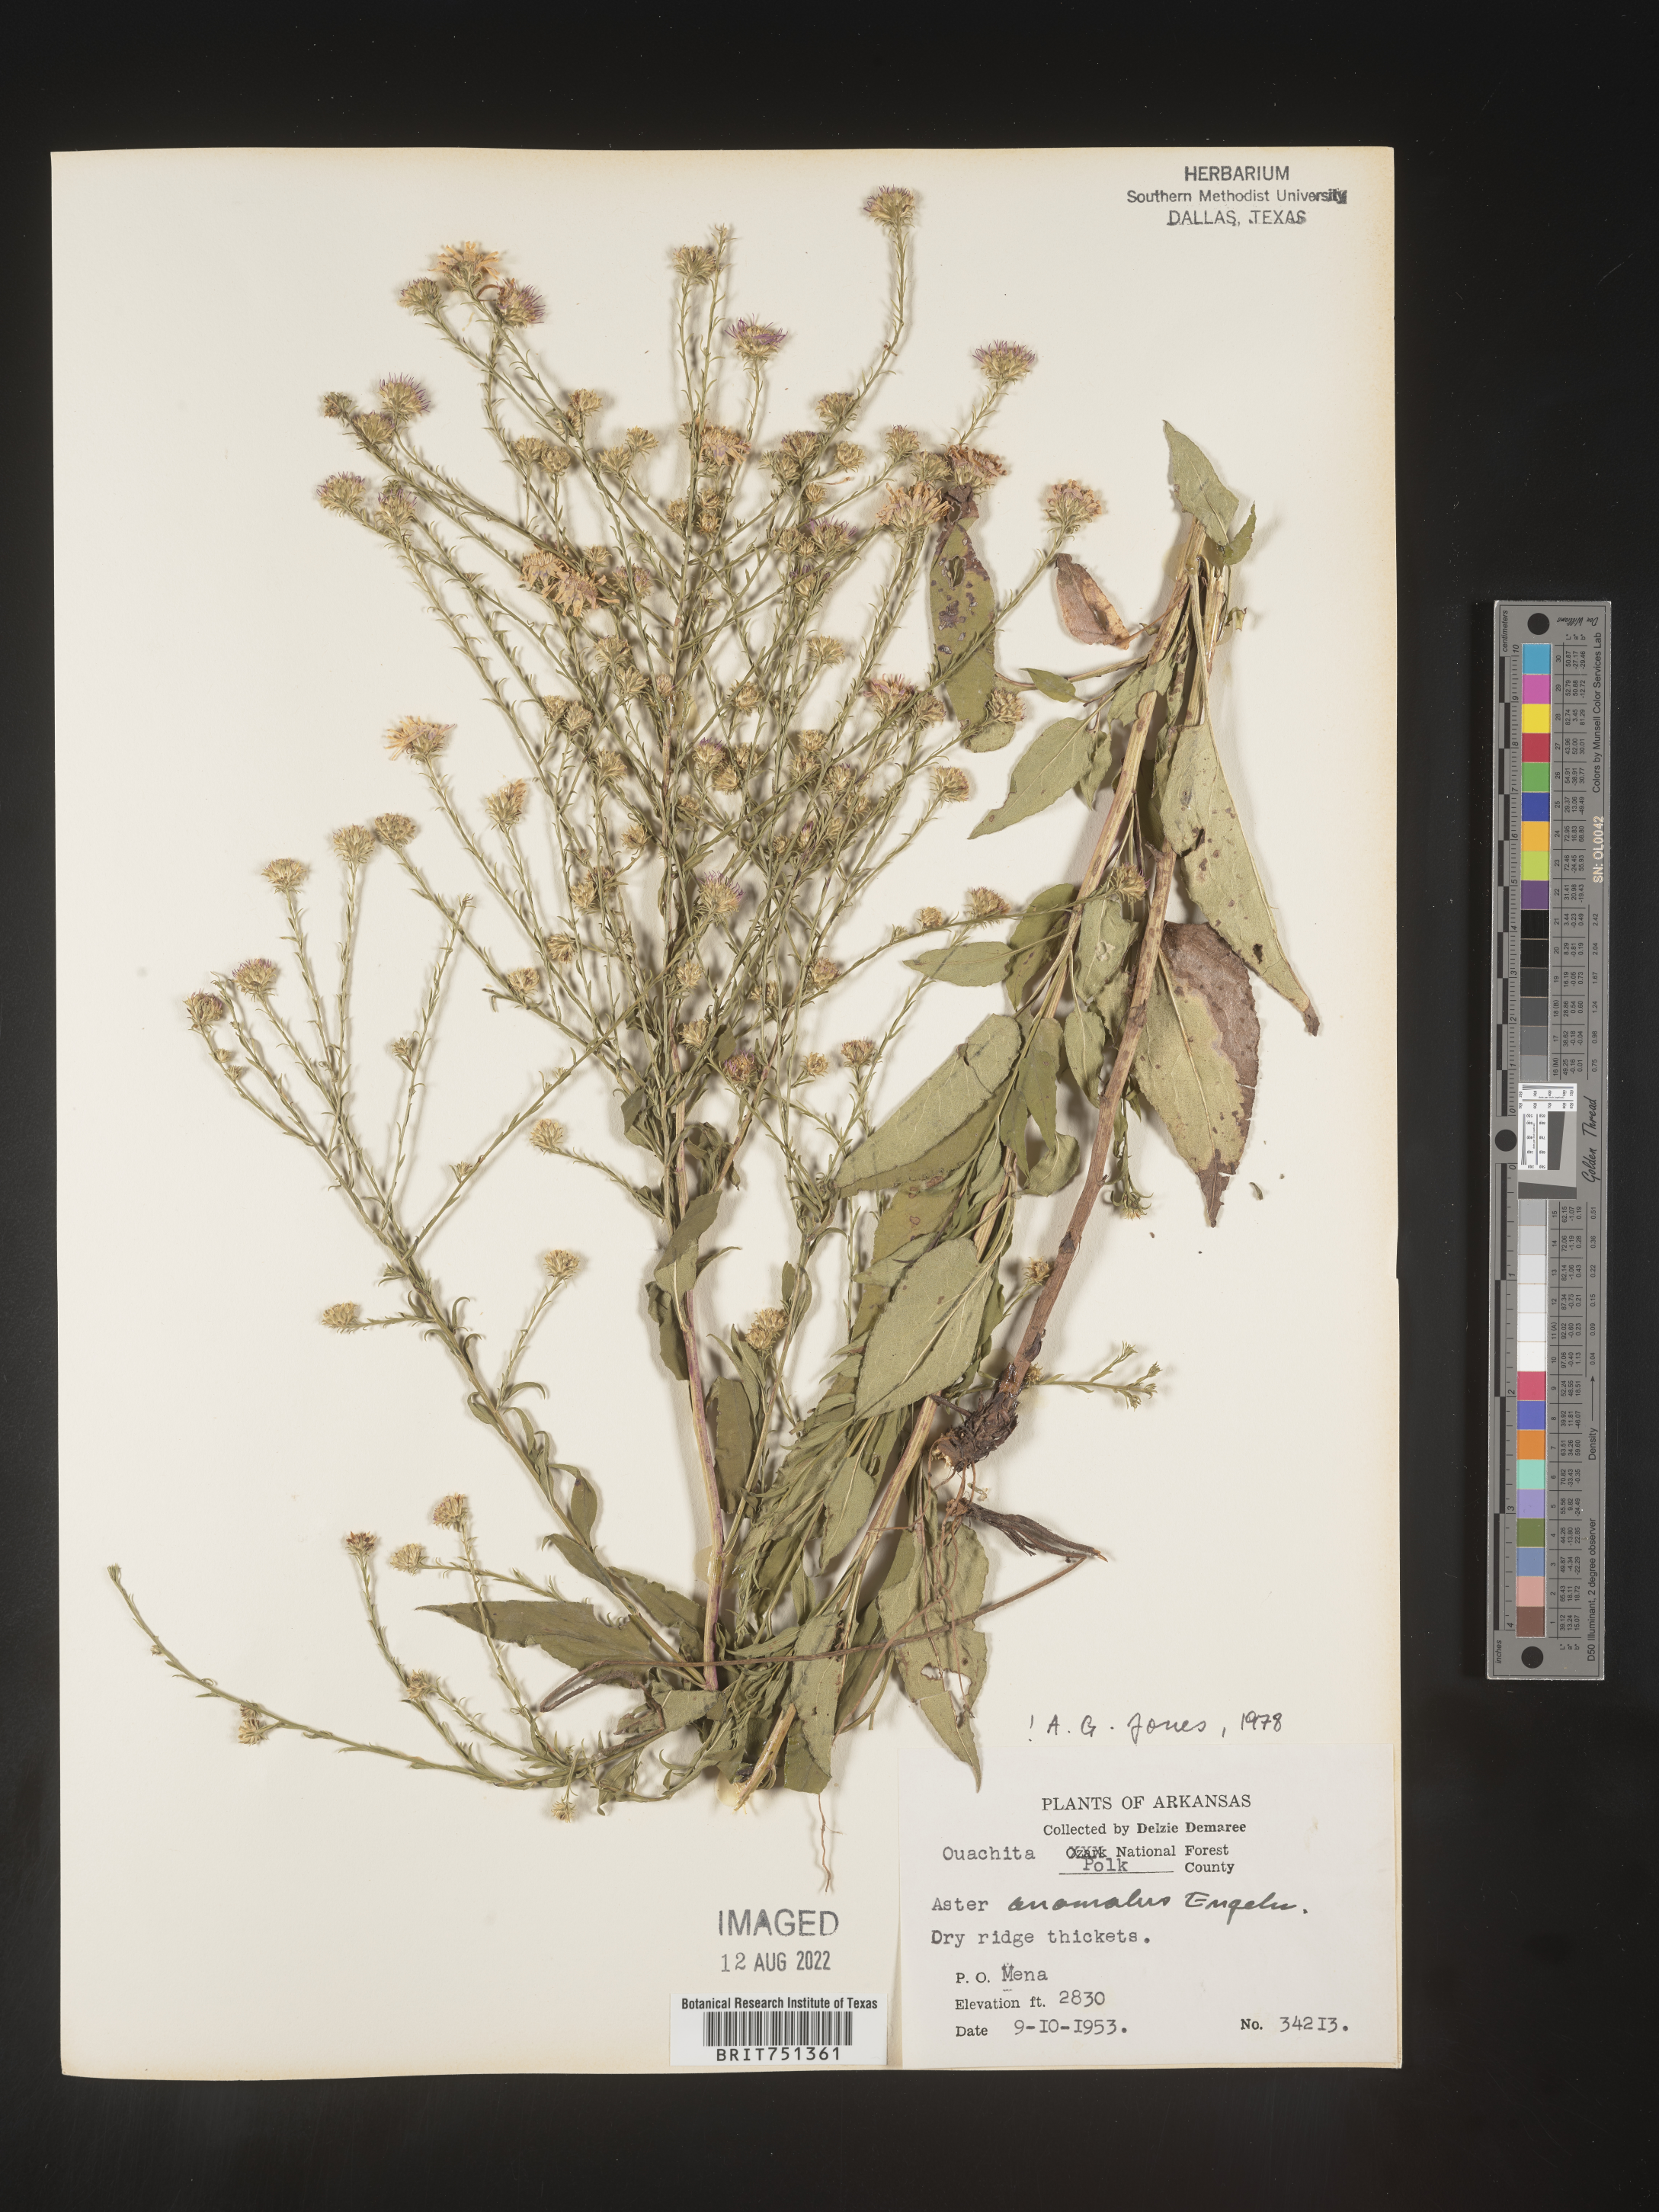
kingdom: Plantae
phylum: Tracheophyta
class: Magnoliopsida
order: Asterales
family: Asteraceae
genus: Symphyotrichum
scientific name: Symphyotrichum anomalum
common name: Many-ray aster
